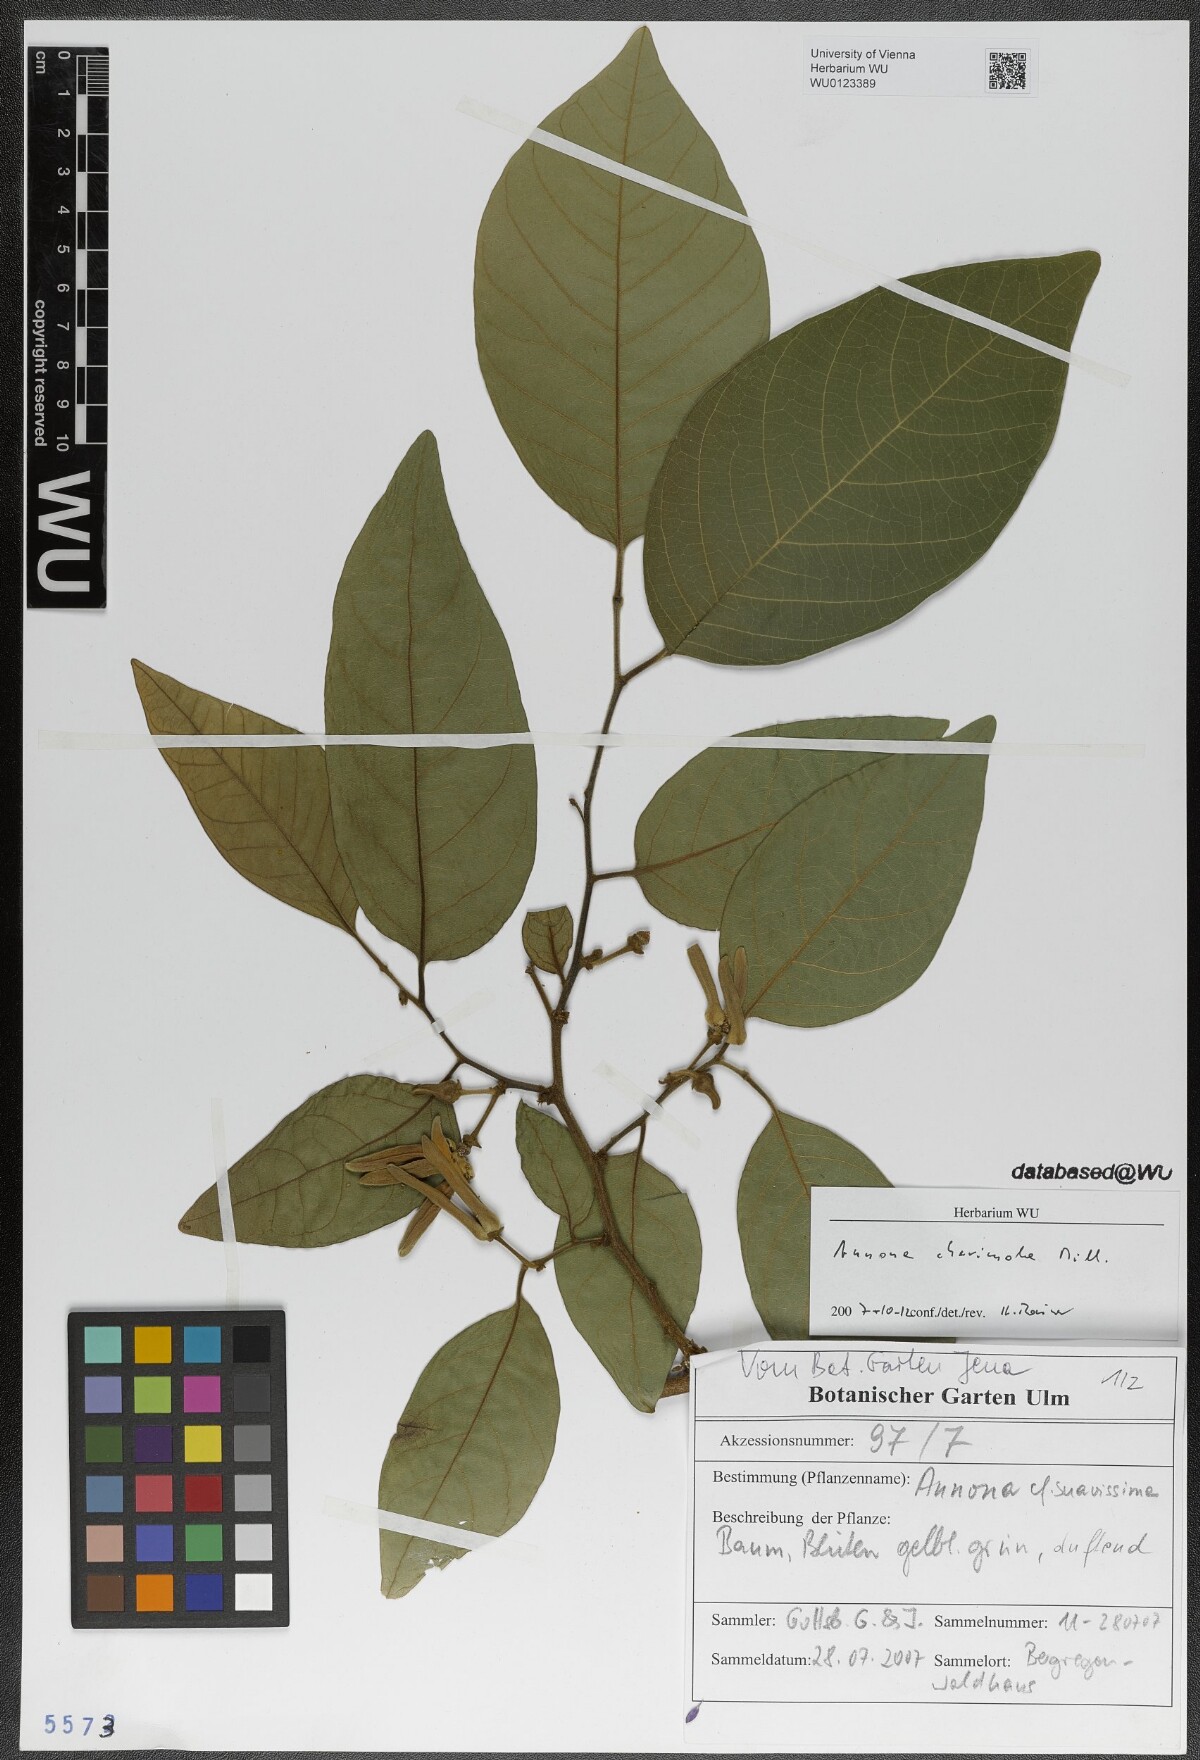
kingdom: Plantae
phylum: Tracheophyta
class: Magnoliopsida
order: Magnoliales
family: Annonaceae
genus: Annona
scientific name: Annona cherimola
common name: Cherimoya
